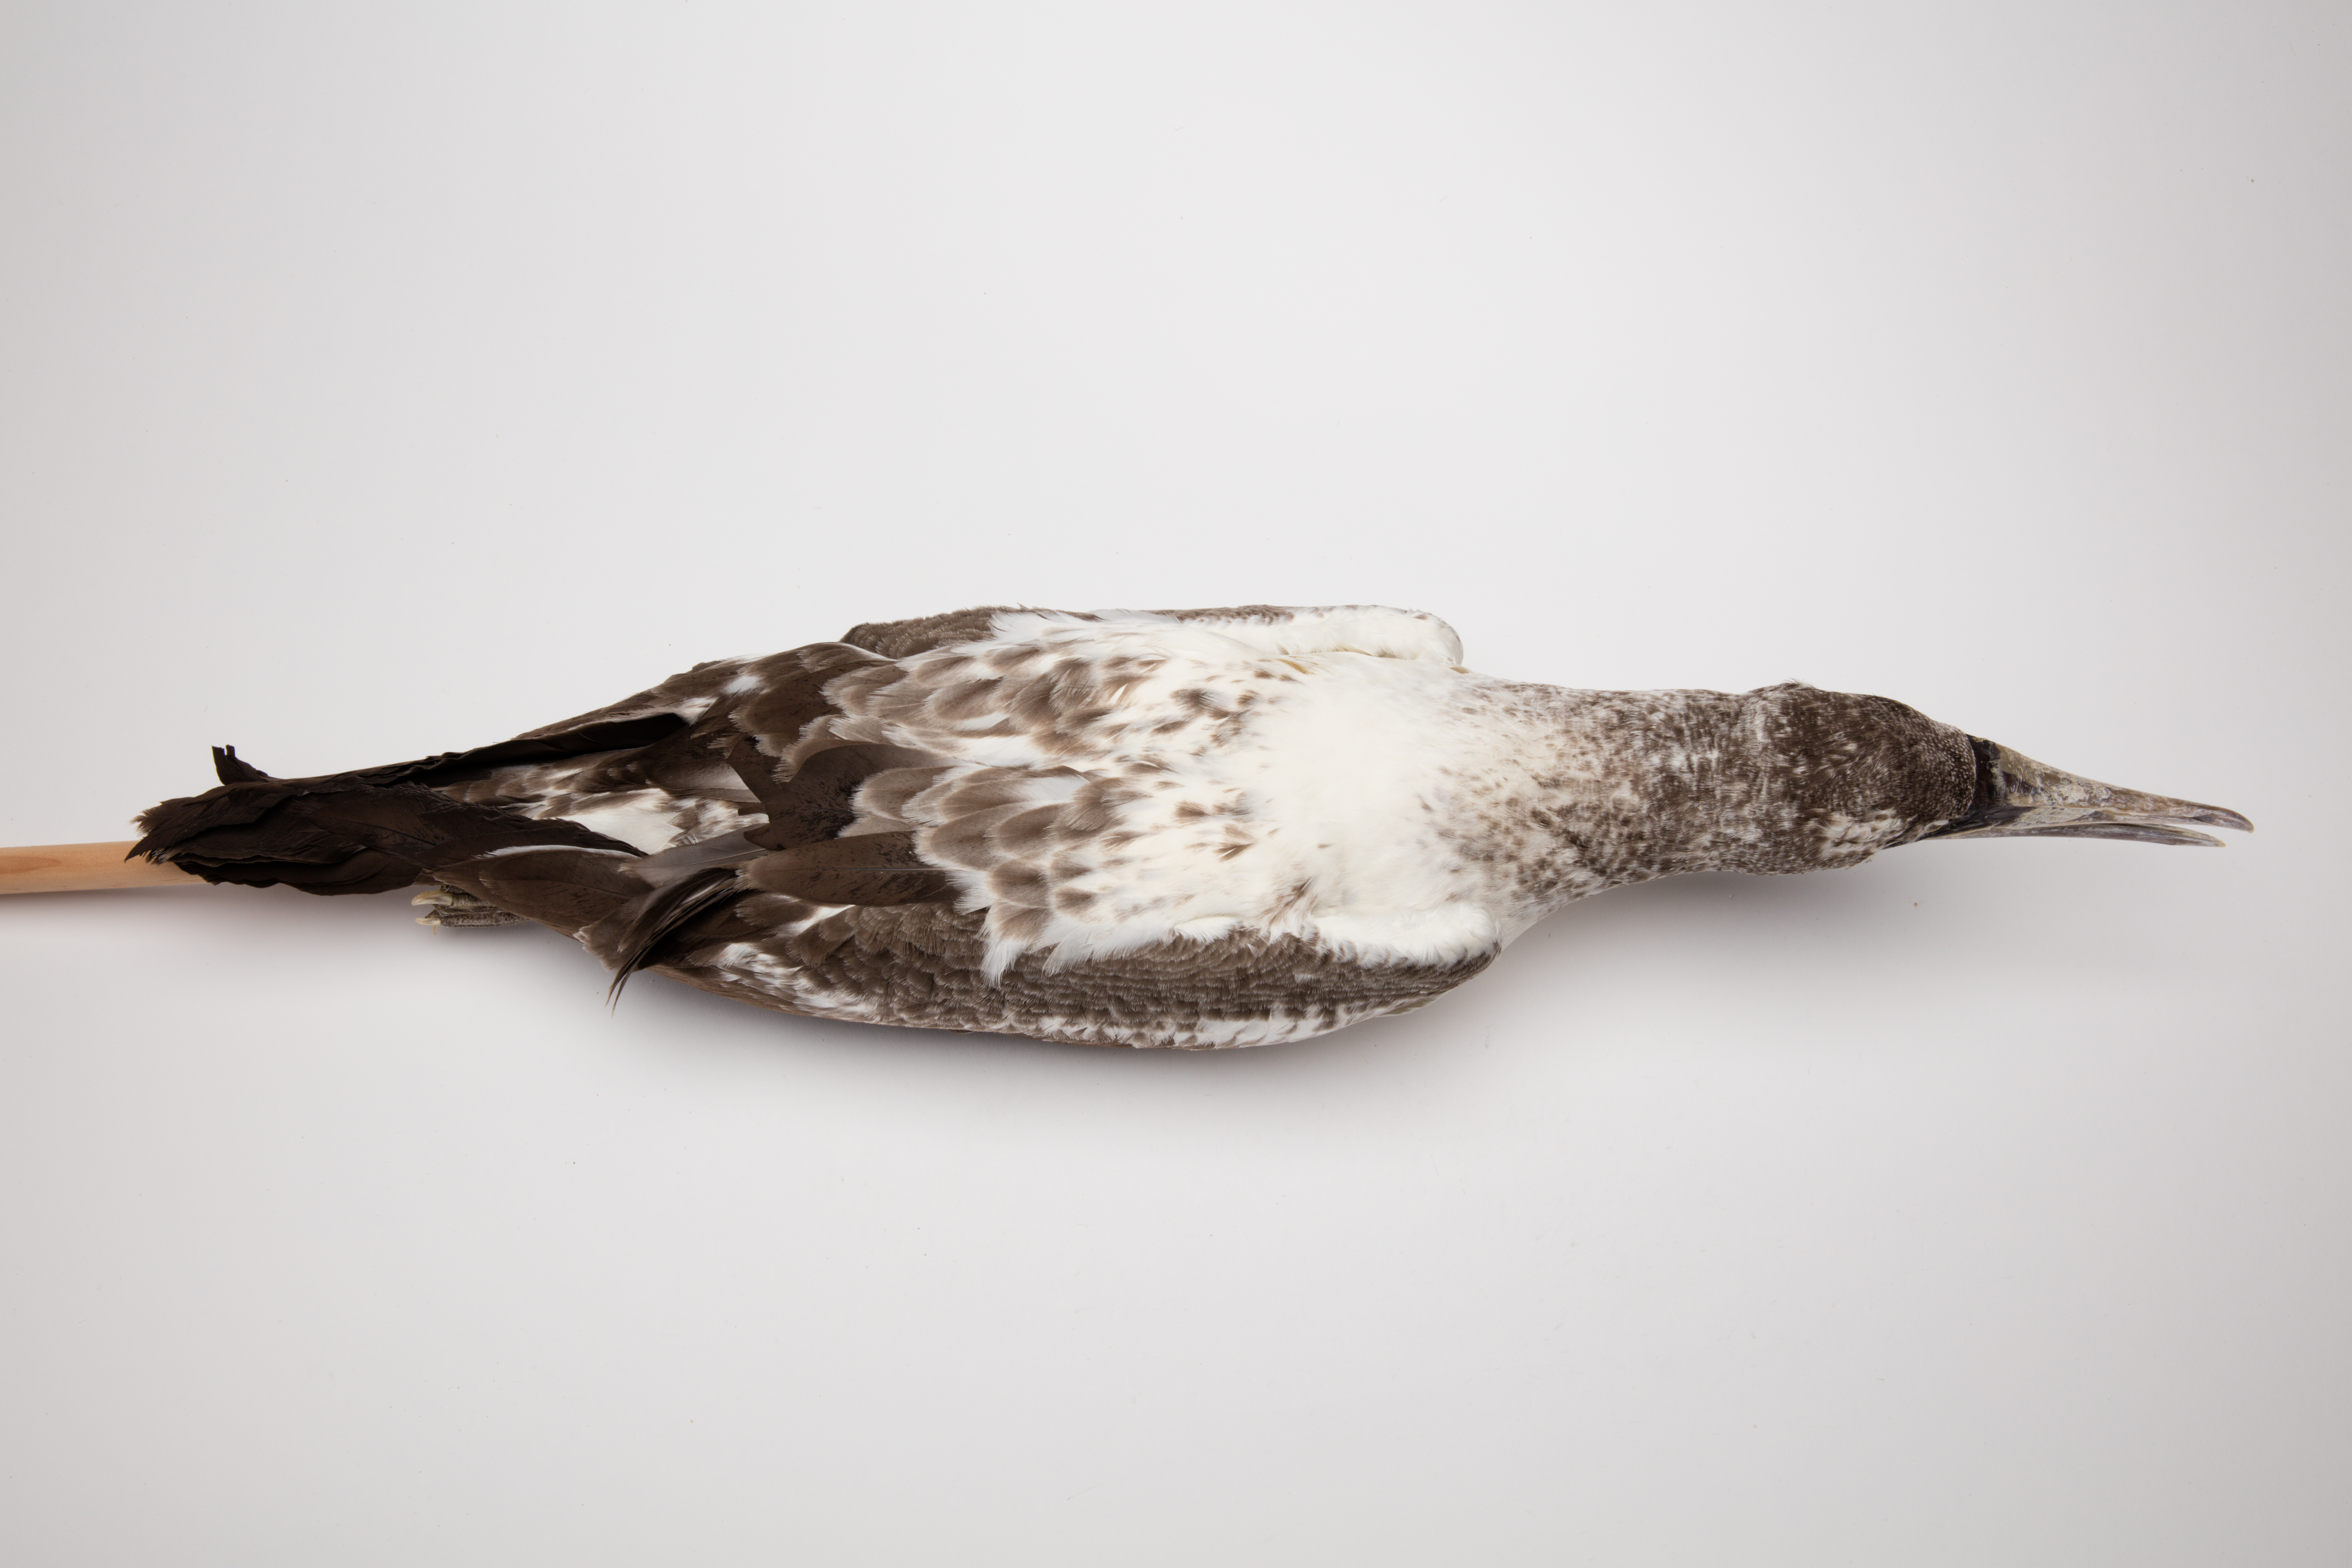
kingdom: Animalia
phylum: Chordata
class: Aves
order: Suliformes
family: Sulidae
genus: Sula
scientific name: Sula dactylatra
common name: Masked booby
